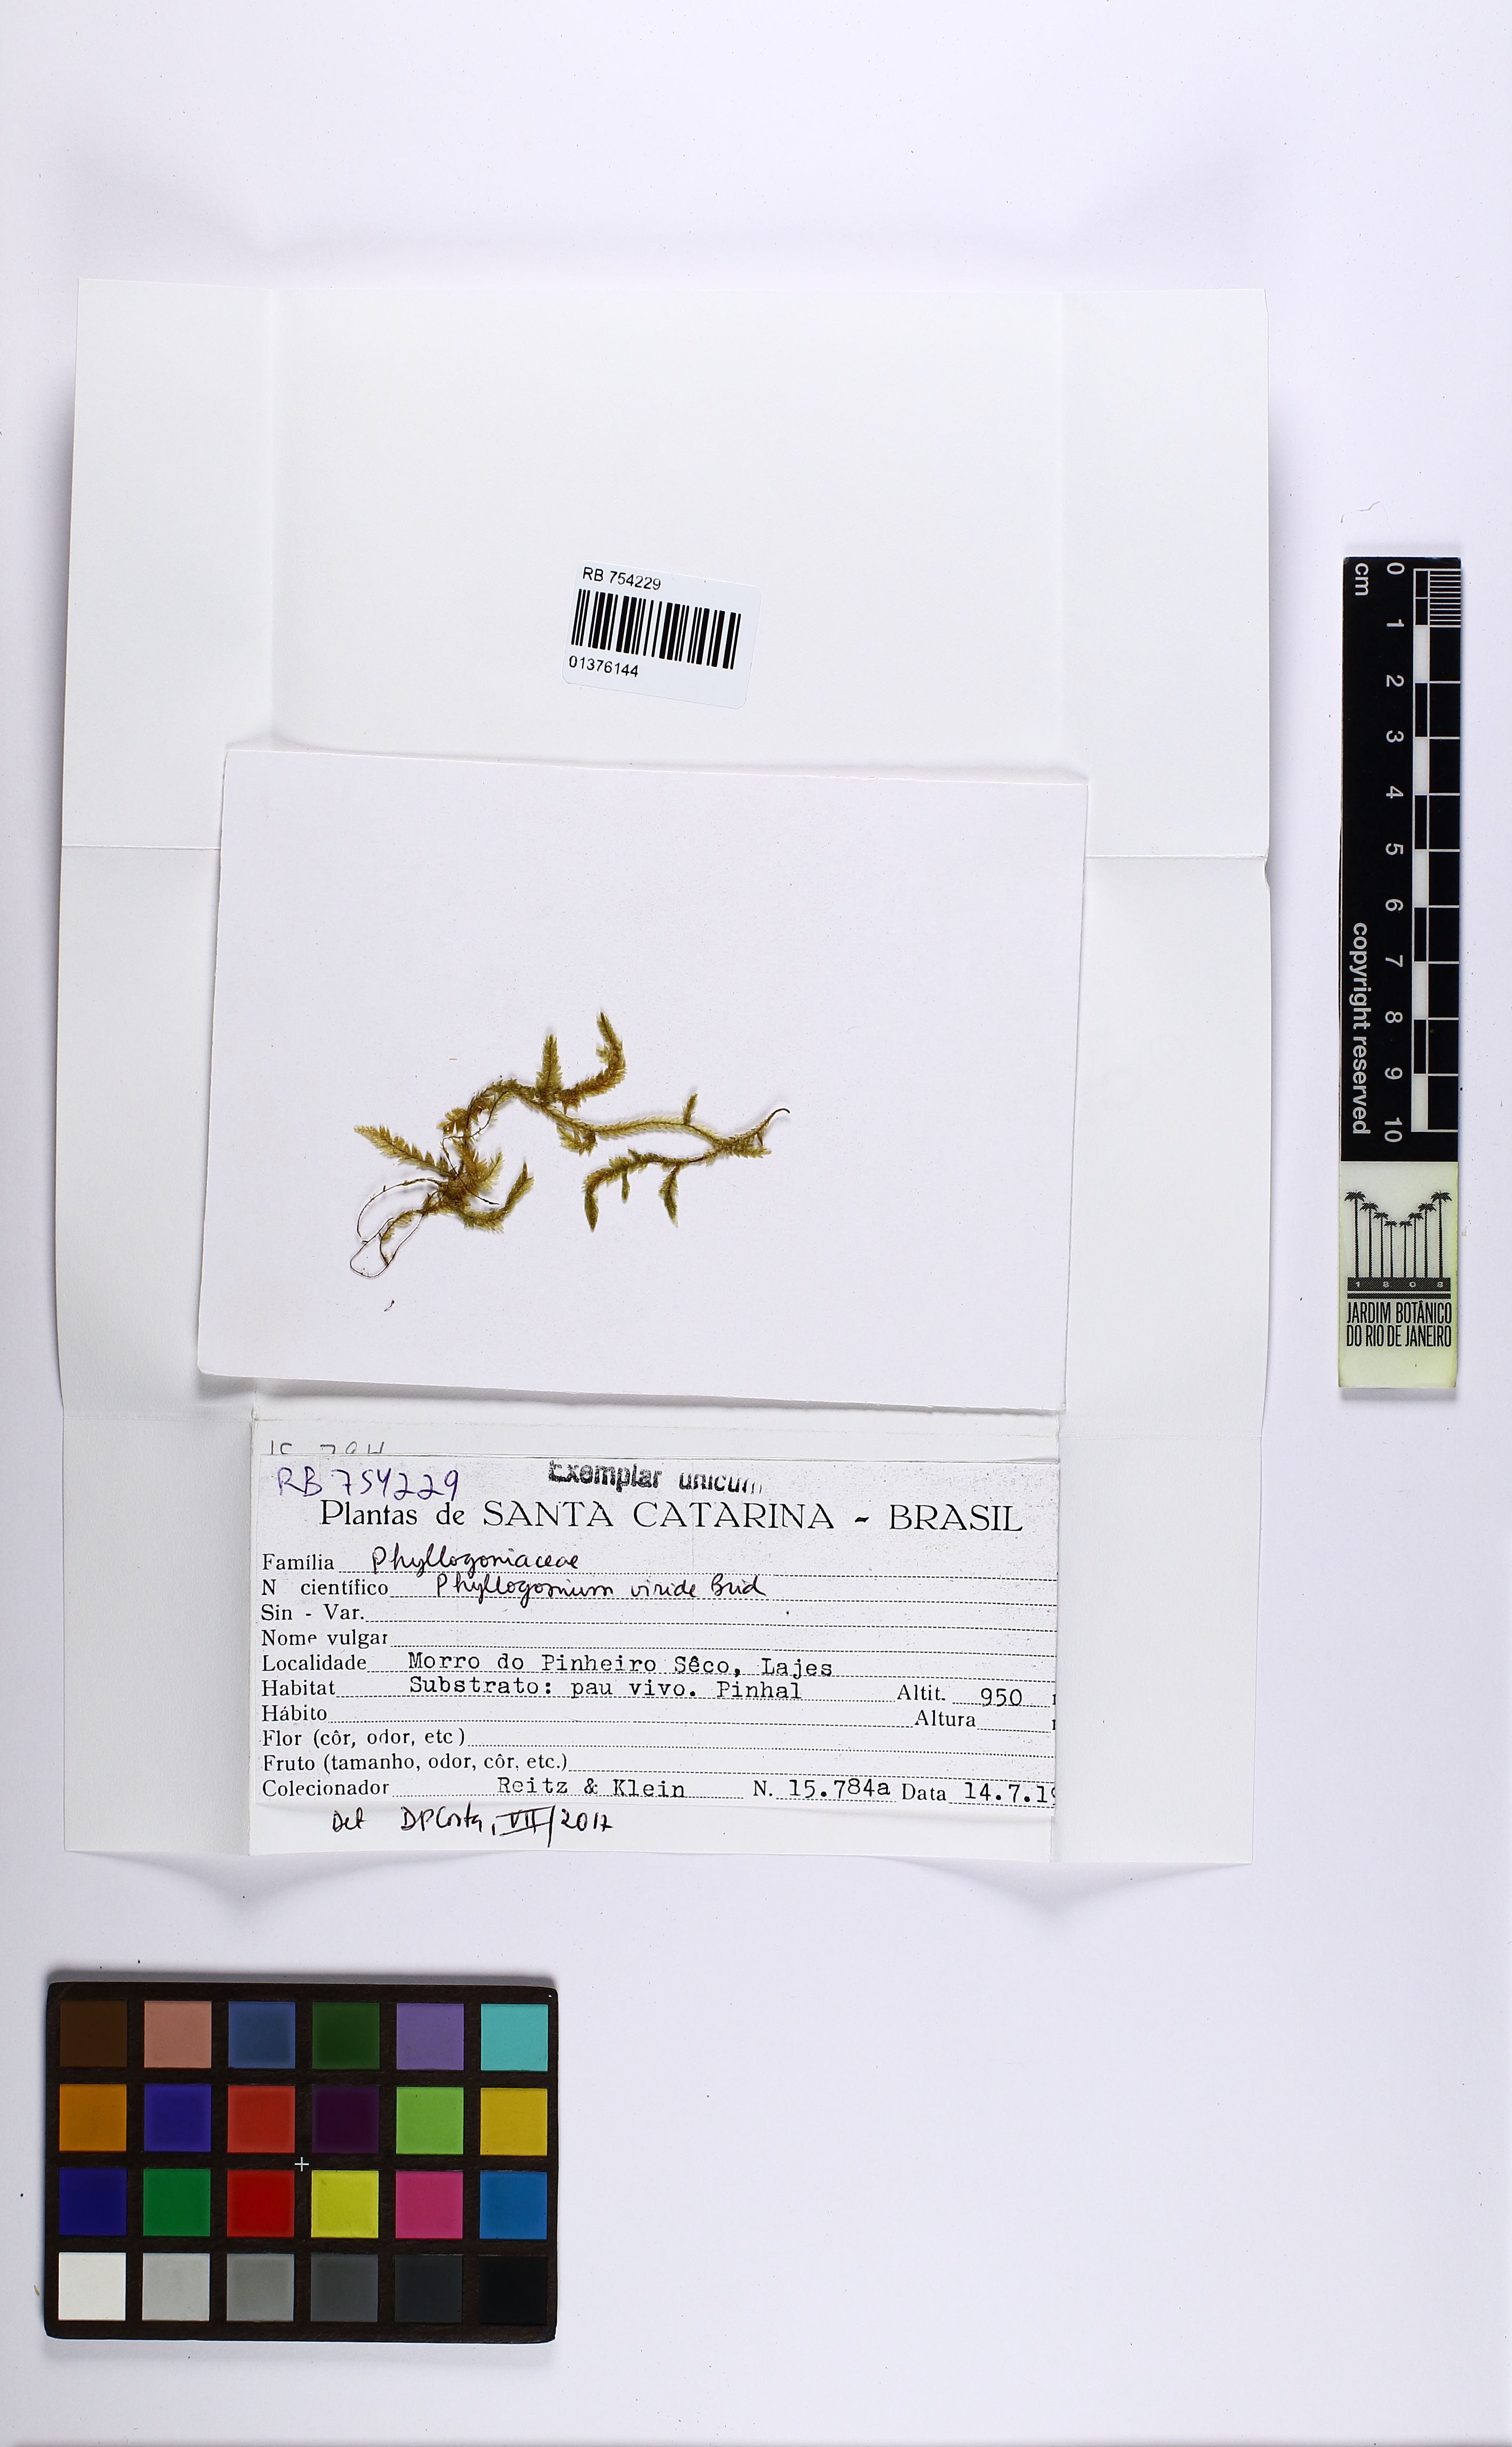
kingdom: Plantae
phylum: Bryophyta
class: Bryopsida
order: Hypnales
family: Phyllogoniaceae
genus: Phyllogonium
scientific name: Phyllogonium viride
